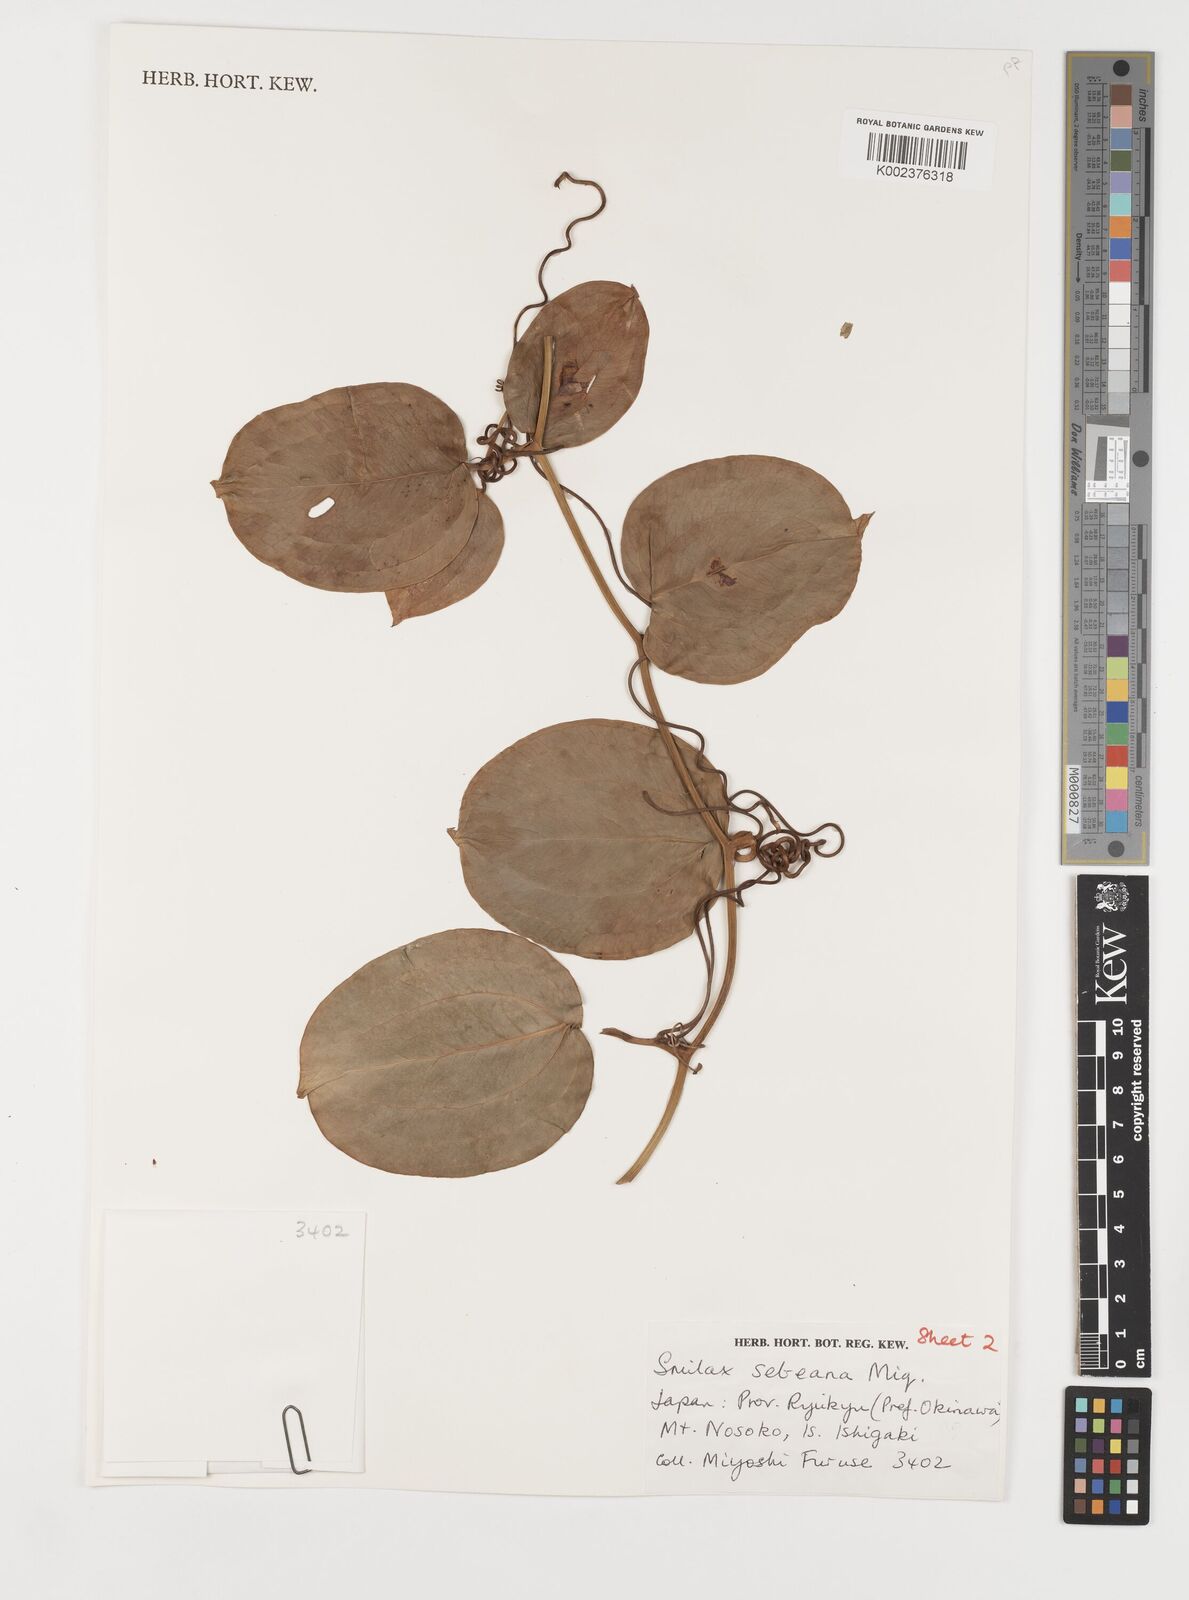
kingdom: Plantae
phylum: Tracheophyta
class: Liliopsida
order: Liliales
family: Smilacaceae
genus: Smilax
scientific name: Smilax sebeana
